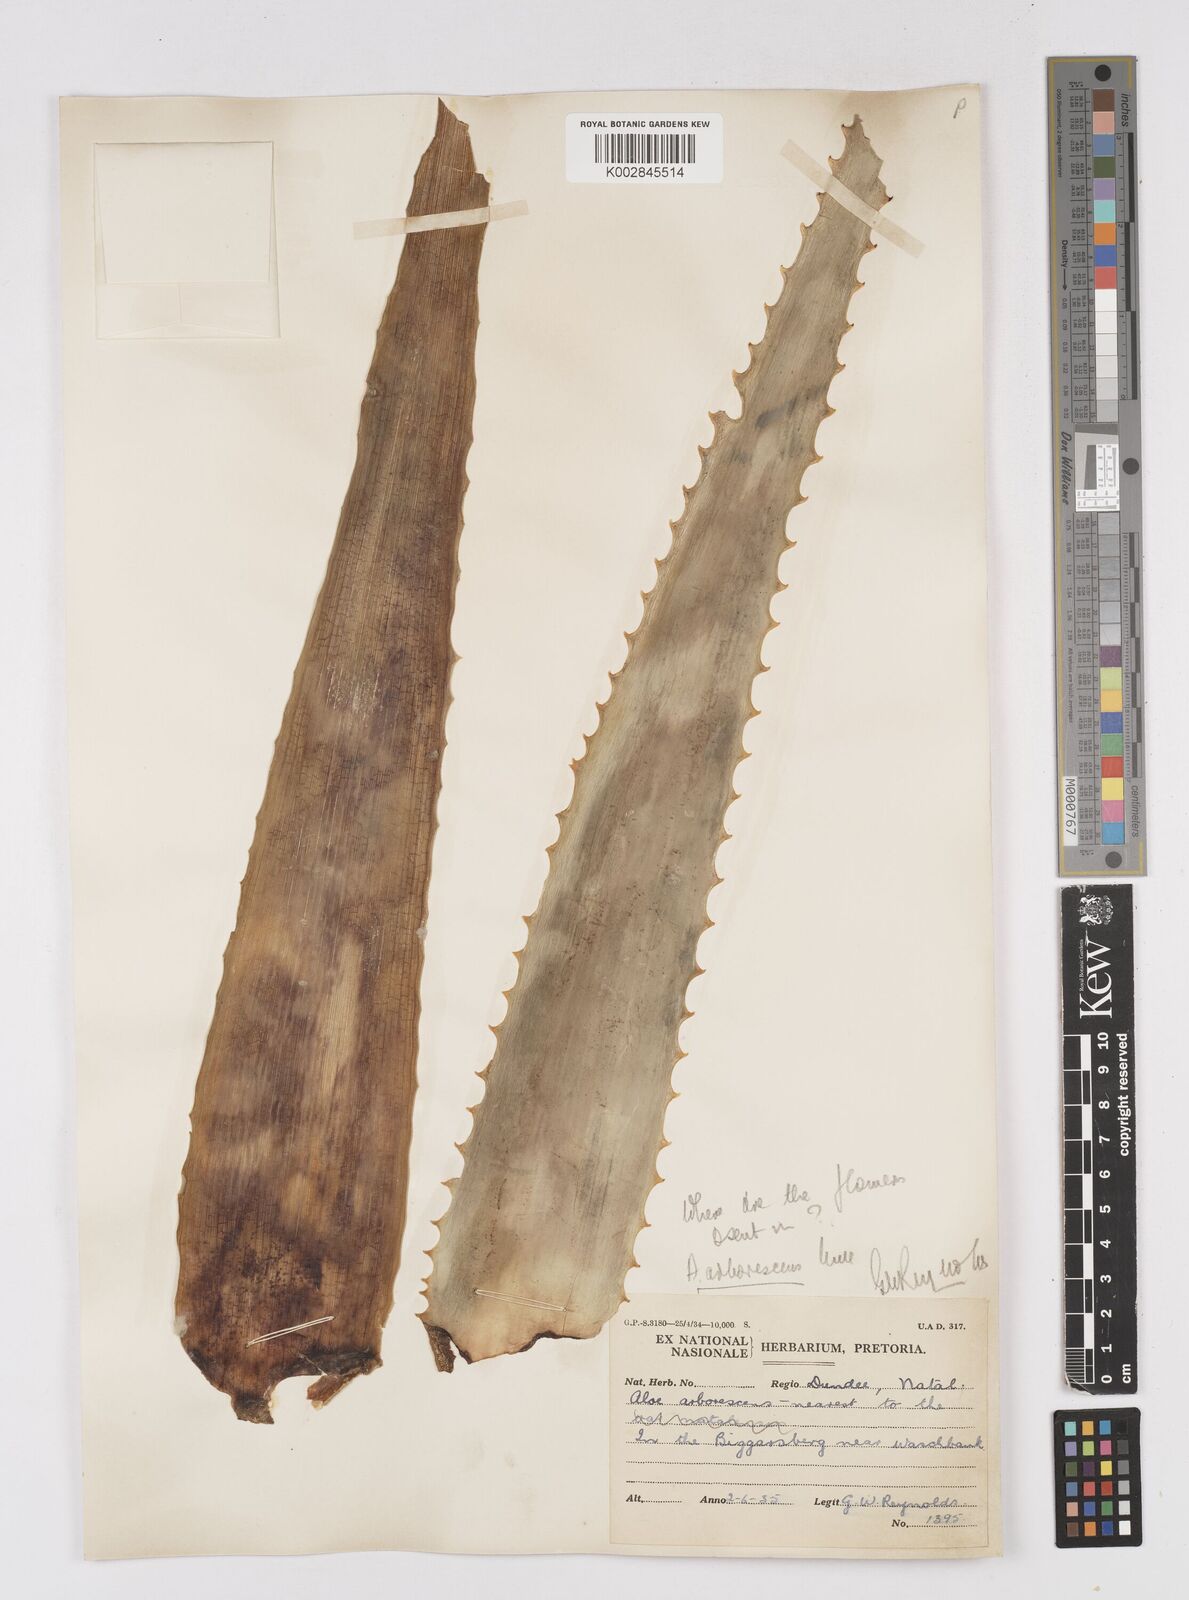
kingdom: Plantae
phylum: Tracheophyta
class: Liliopsida
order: Asparagales
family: Asphodelaceae
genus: Aloe
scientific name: Aloe arborescens
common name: Candelabra aloe
